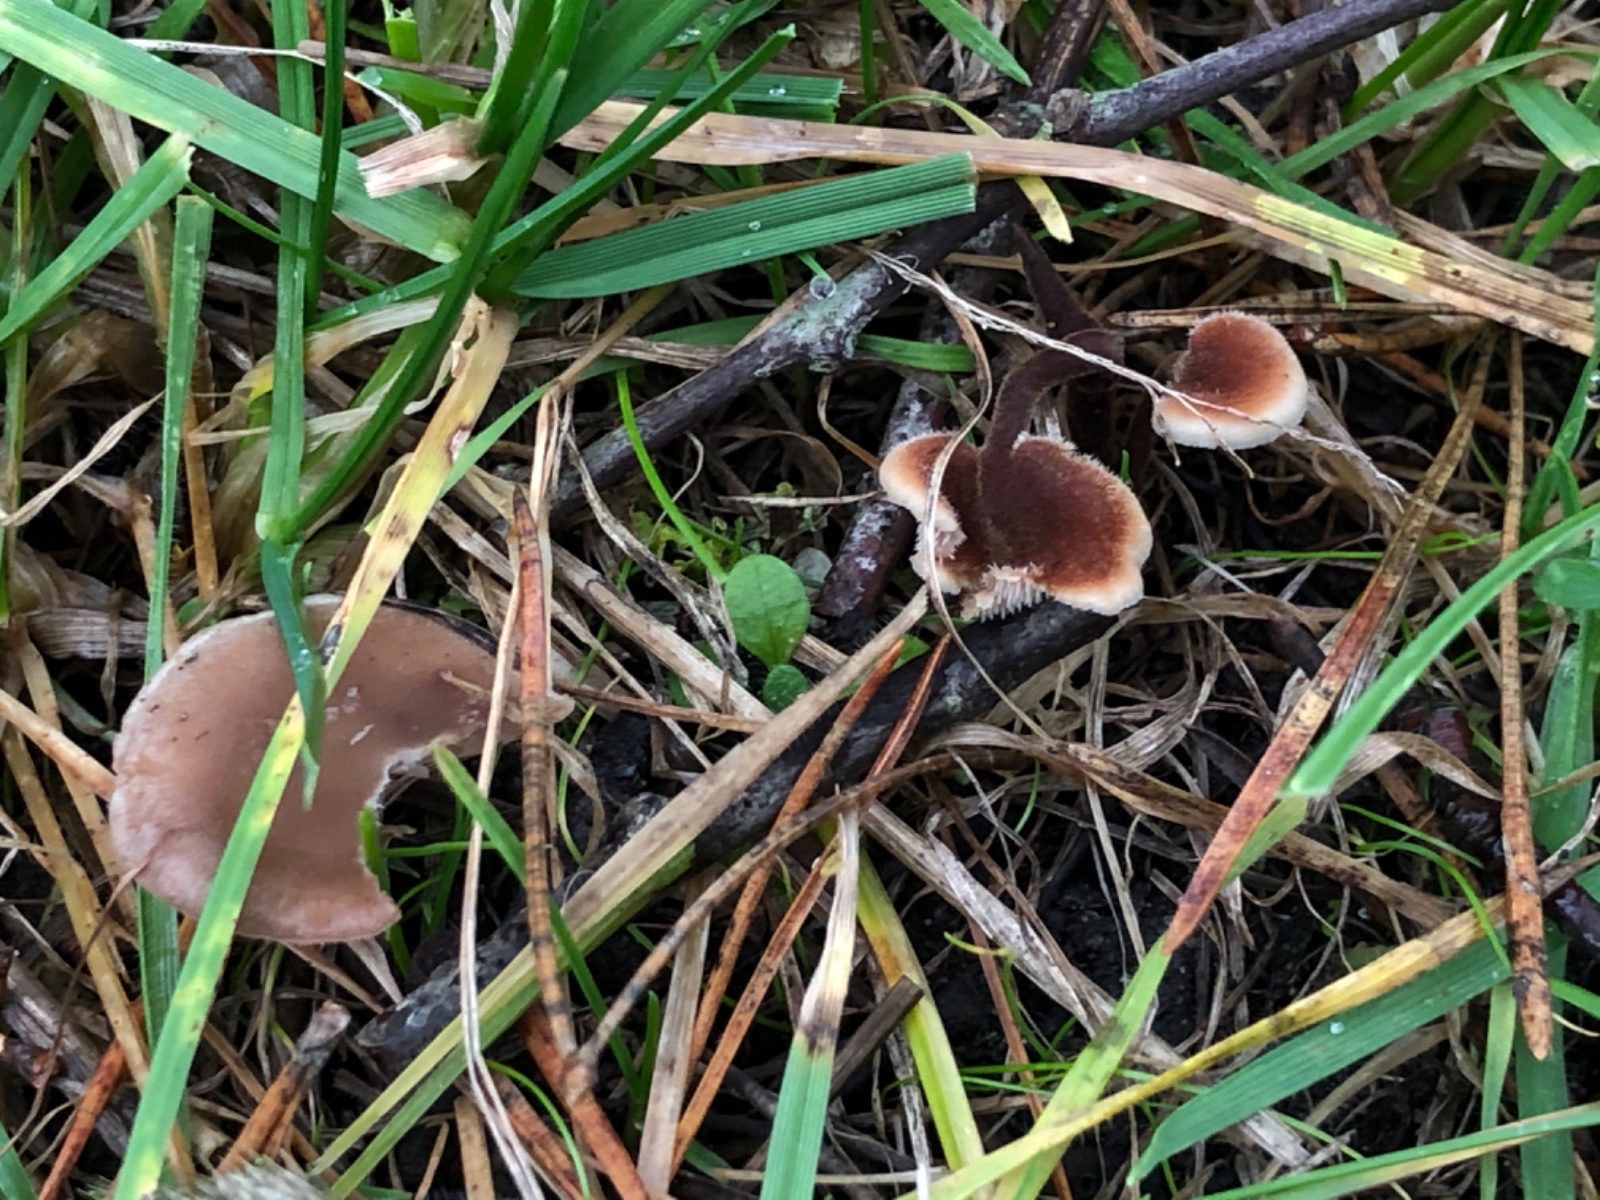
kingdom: Fungi
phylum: Basidiomycota
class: Agaricomycetes
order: Russulales
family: Auriscalpiaceae
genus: Auriscalpium
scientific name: Auriscalpium vulgare
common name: koglepigsvamp
